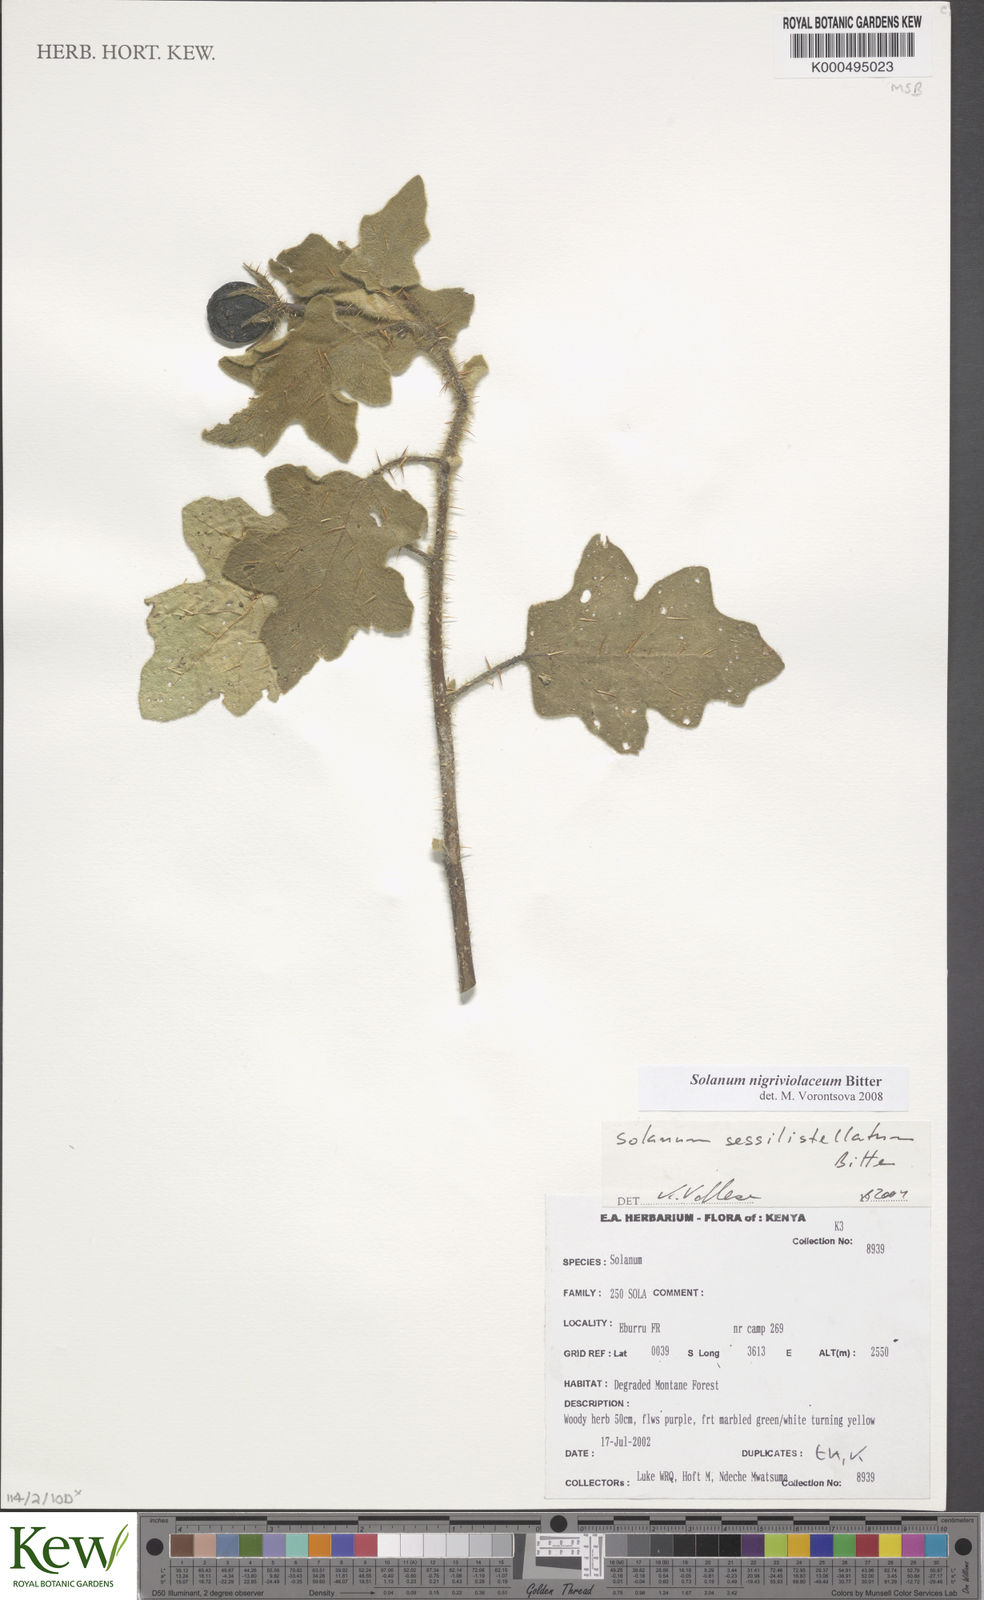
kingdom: Plantae
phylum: Tracheophyta
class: Magnoliopsida
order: Solanales
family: Solanaceae
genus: Solanum
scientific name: Solanum nigriviolaceum
